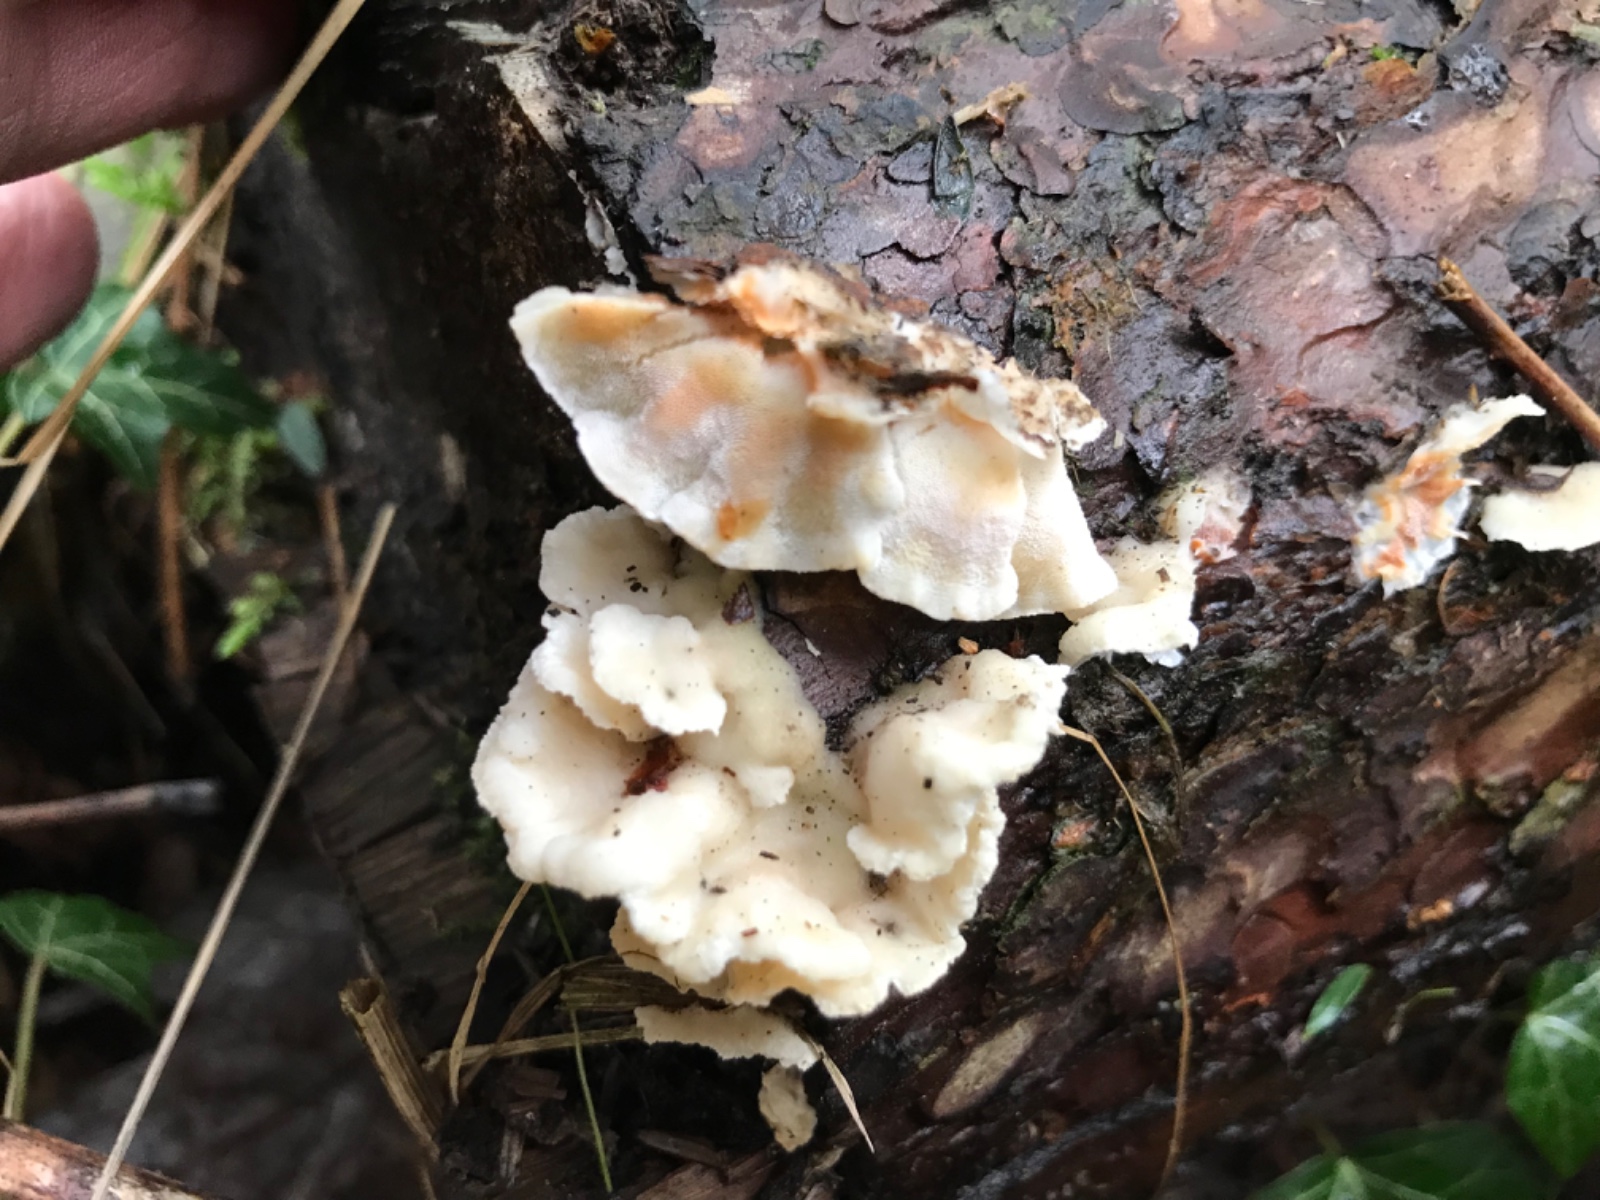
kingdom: Fungi
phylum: Basidiomycota
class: Agaricomycetes
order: Polyporales
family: Incrustoporiaceae
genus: Skeletocutis
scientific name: Skeletocutis amorpha
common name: orange krystalporesvamp
